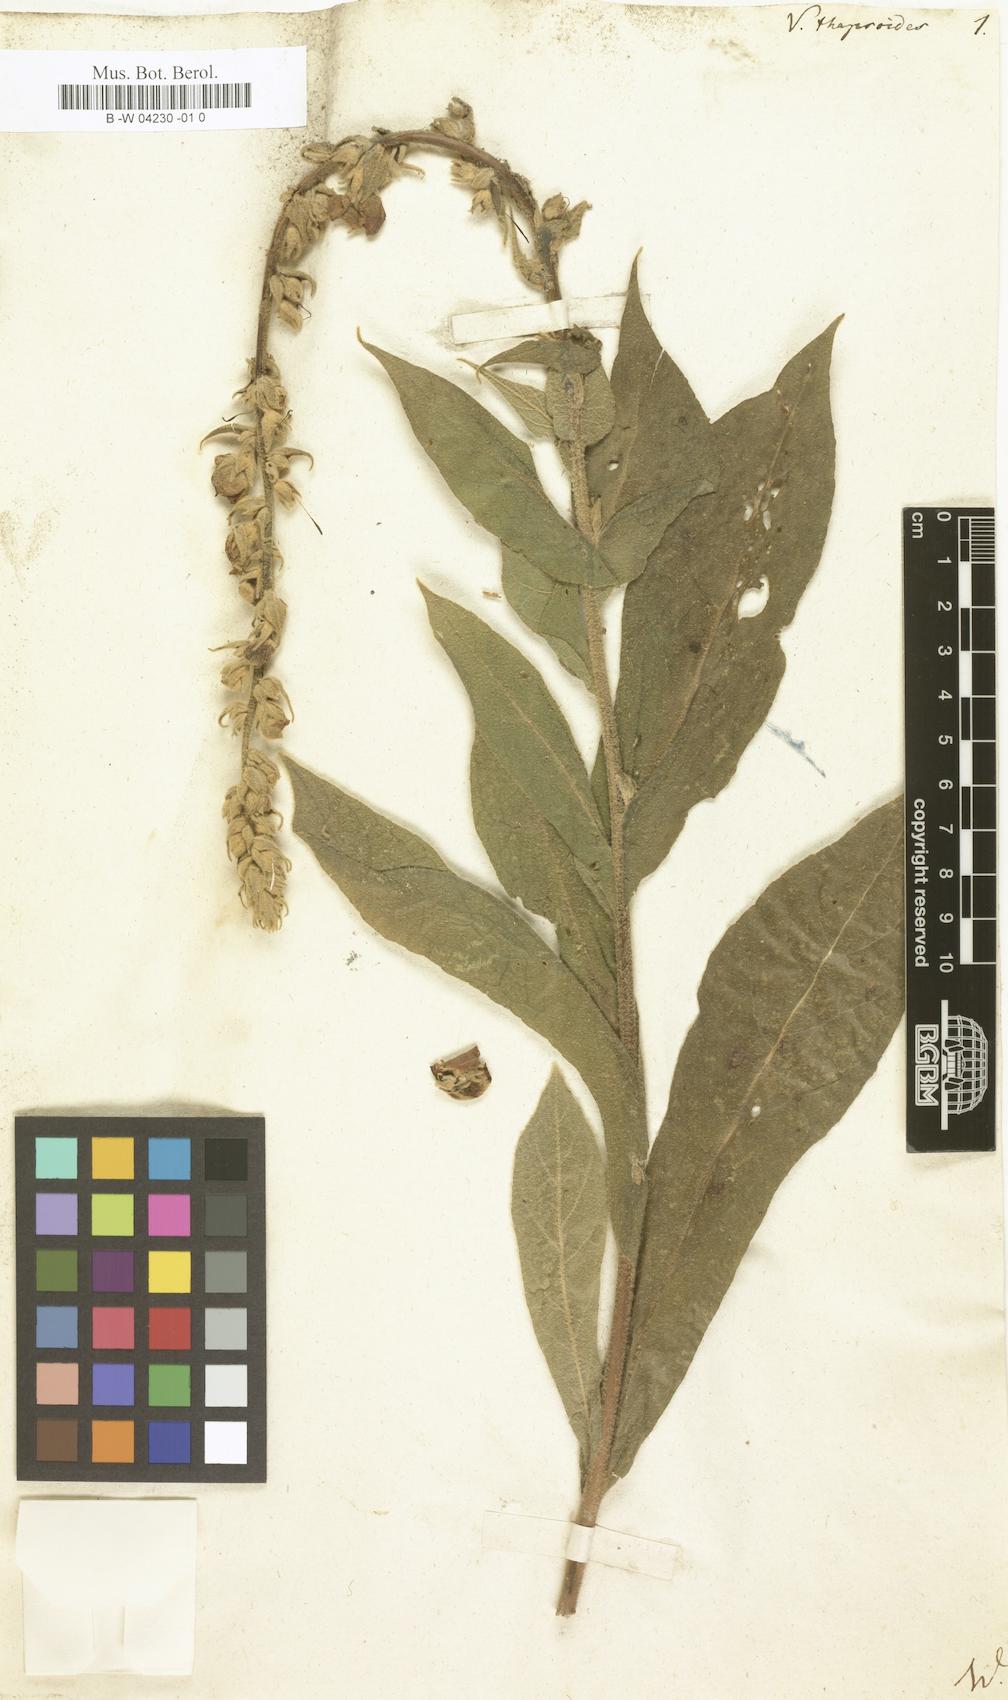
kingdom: Plantae
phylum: Tracheophyta
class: Magnoliopsida
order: Lamiales
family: Scrophulariaceae
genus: Verbascum
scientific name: Verbascum thapsus
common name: Common mullein
